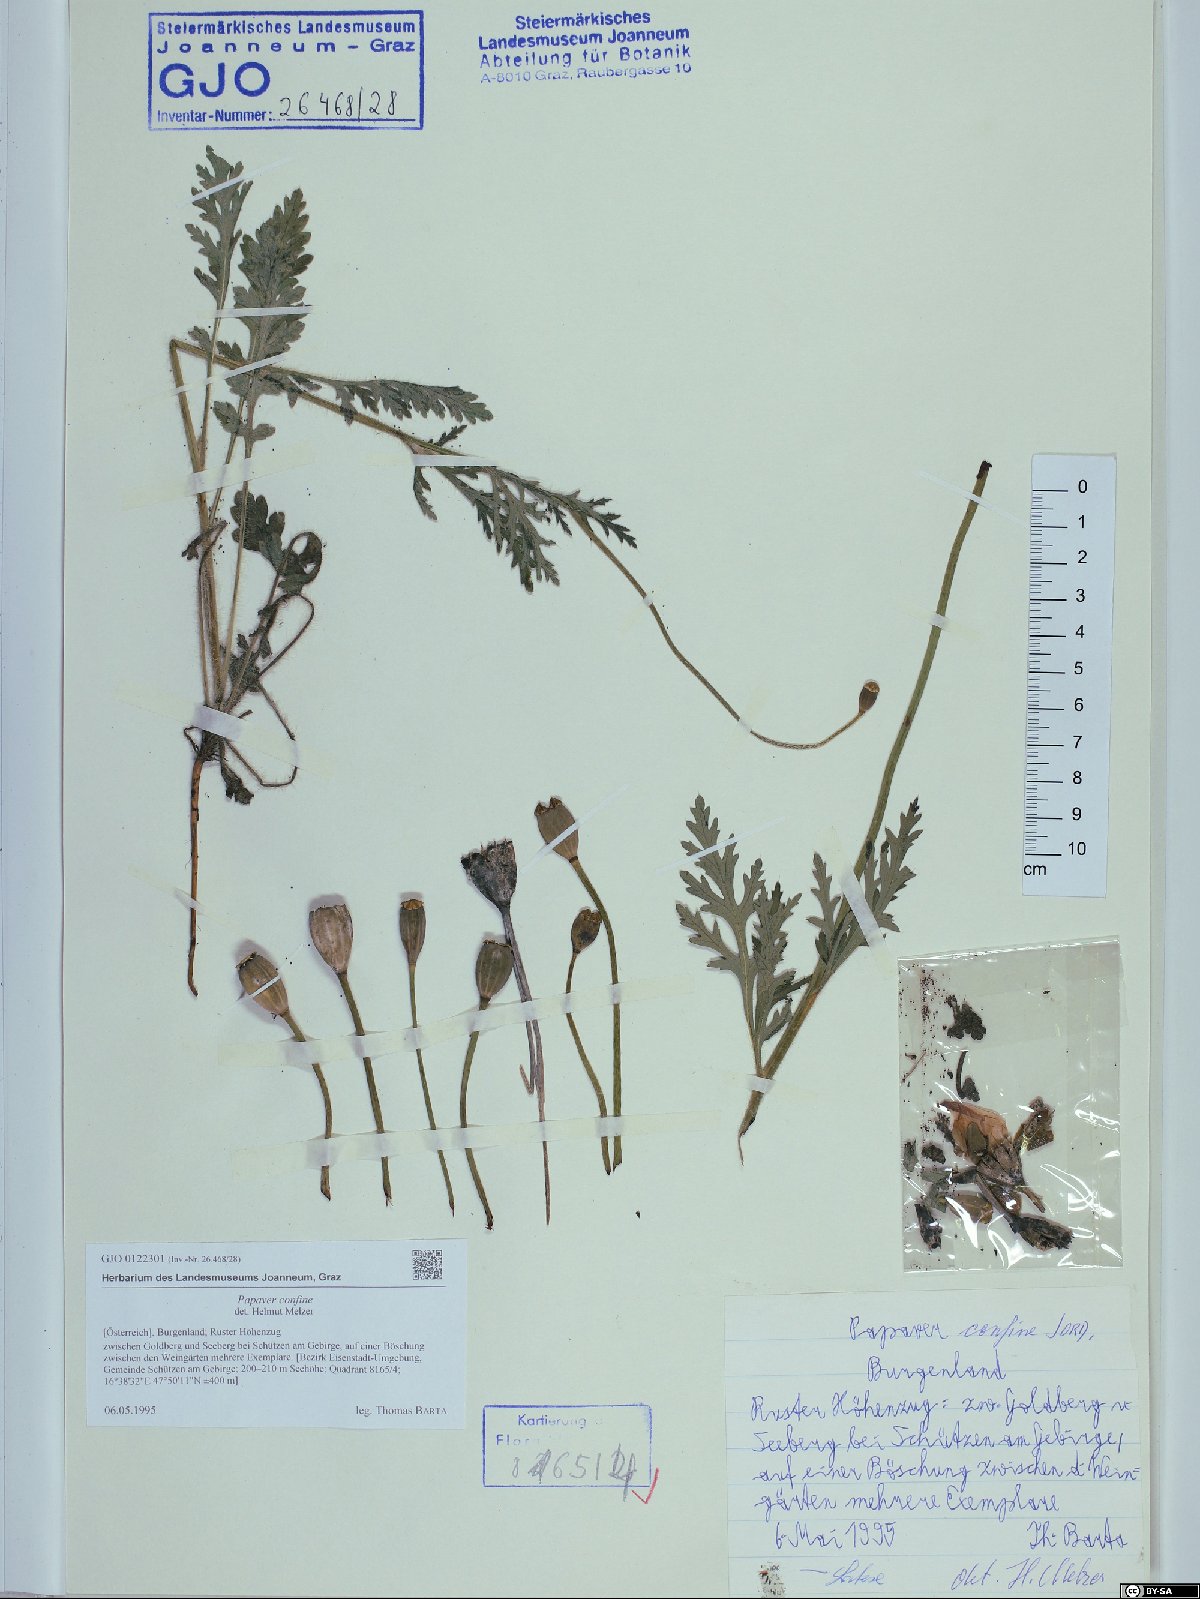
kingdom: Plantae
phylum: Tracheophyta
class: Magnoliopsida
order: Ranunculales
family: Papaveraceae
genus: Papaver
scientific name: Papaver confine
